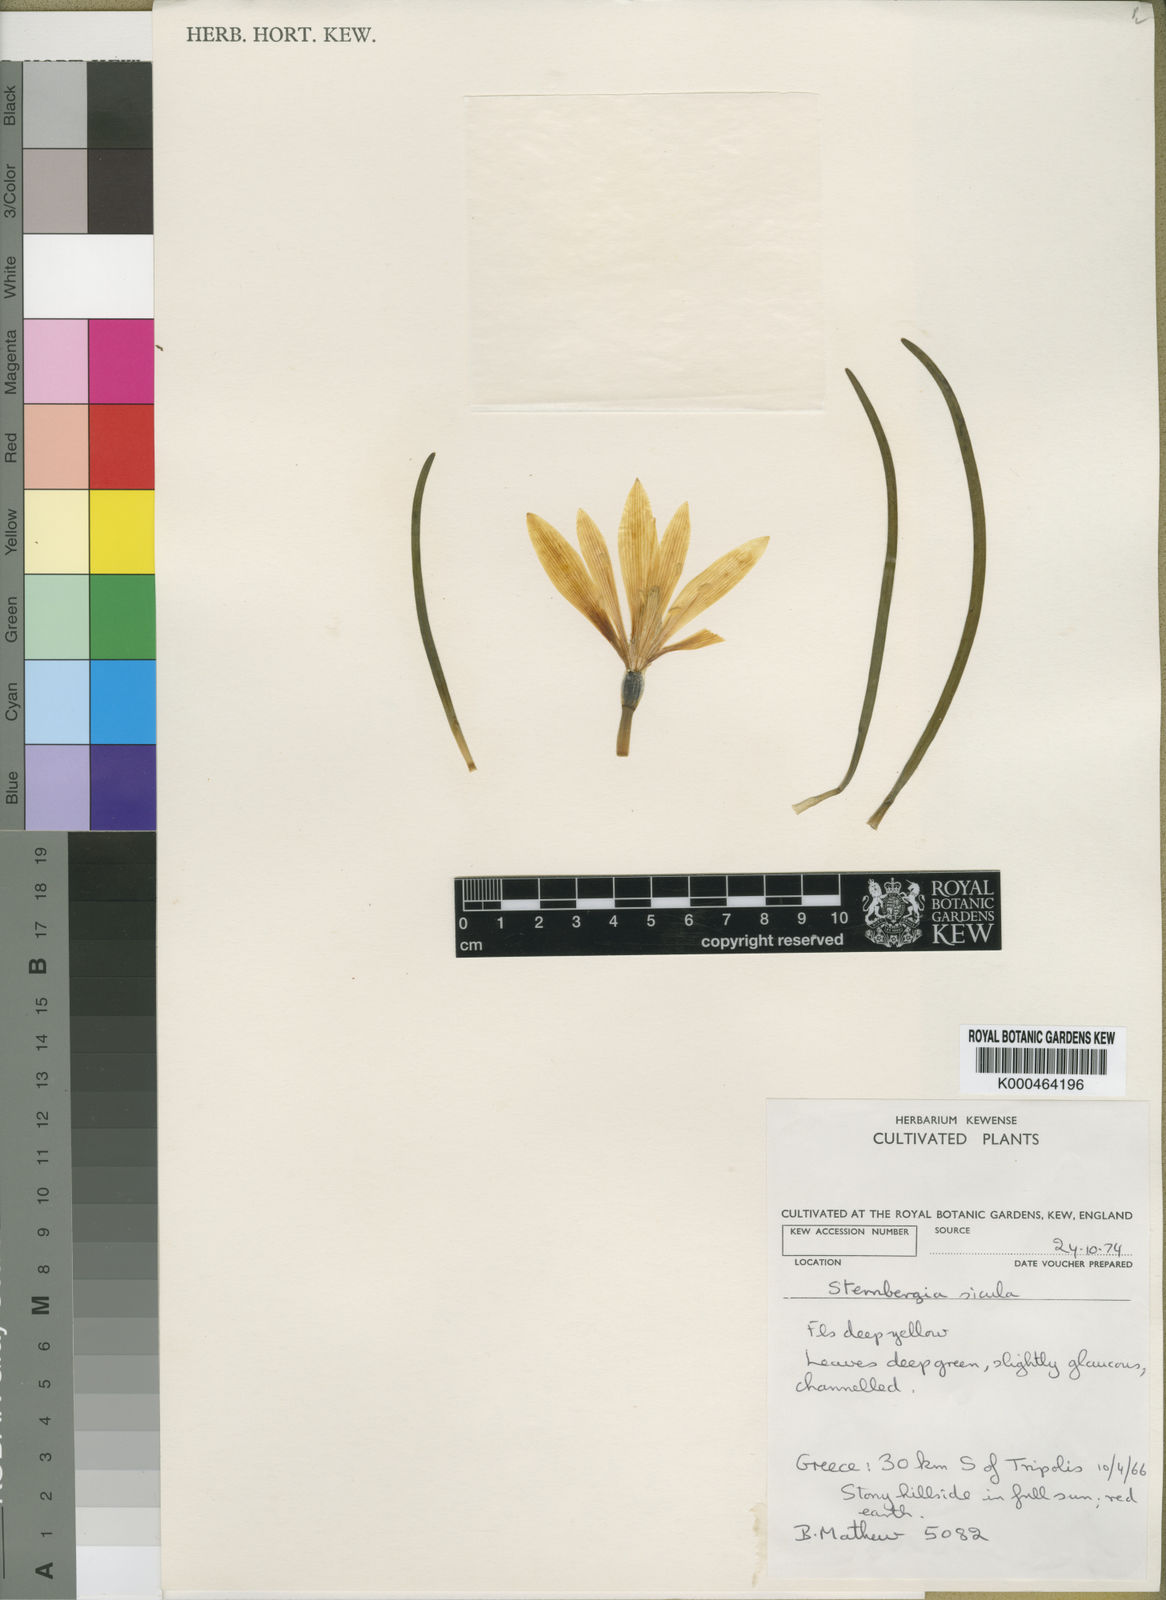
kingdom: Plantae
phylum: Tracheophyta
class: Liliopsida
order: Asparagales
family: Amaryllidaceae
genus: Sternbergia
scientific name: Sternbergia
